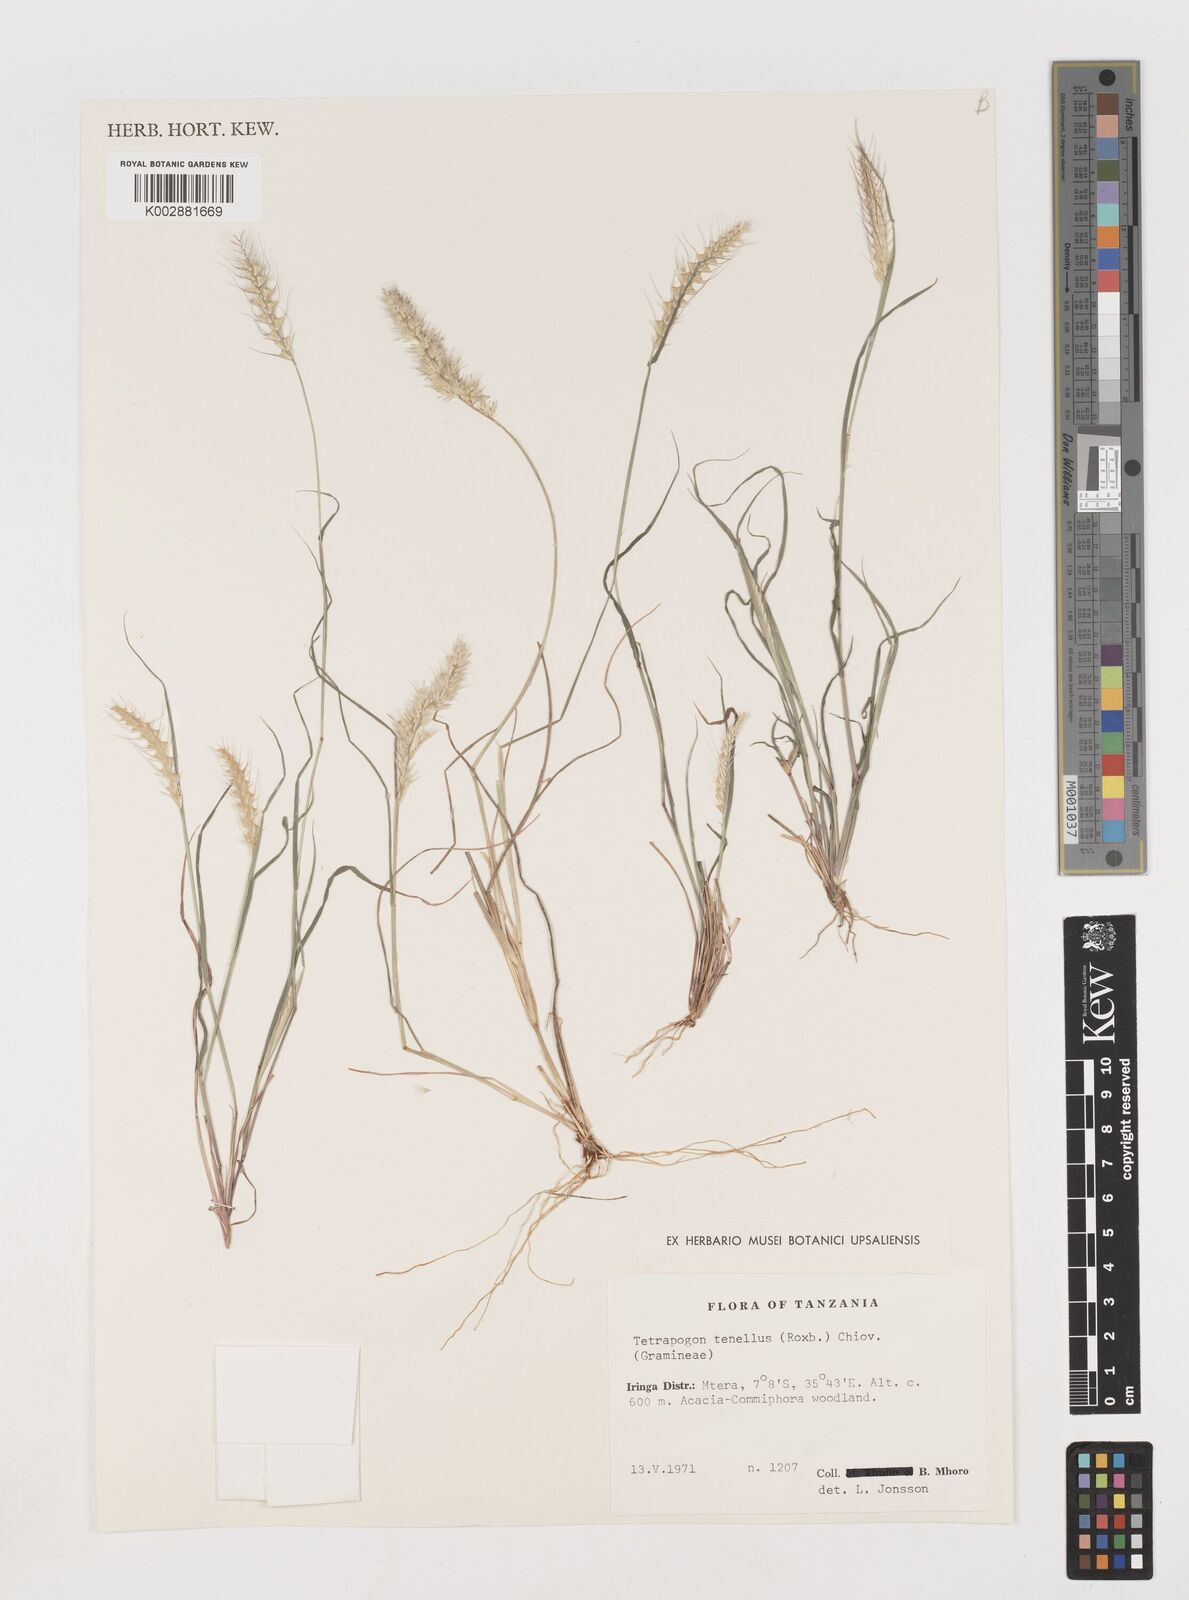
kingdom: Plantae
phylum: Tracheophyta
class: Liliopsida
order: Poales
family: Poaceae
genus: Tetrapogon
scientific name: Tetrapogon tenellus
